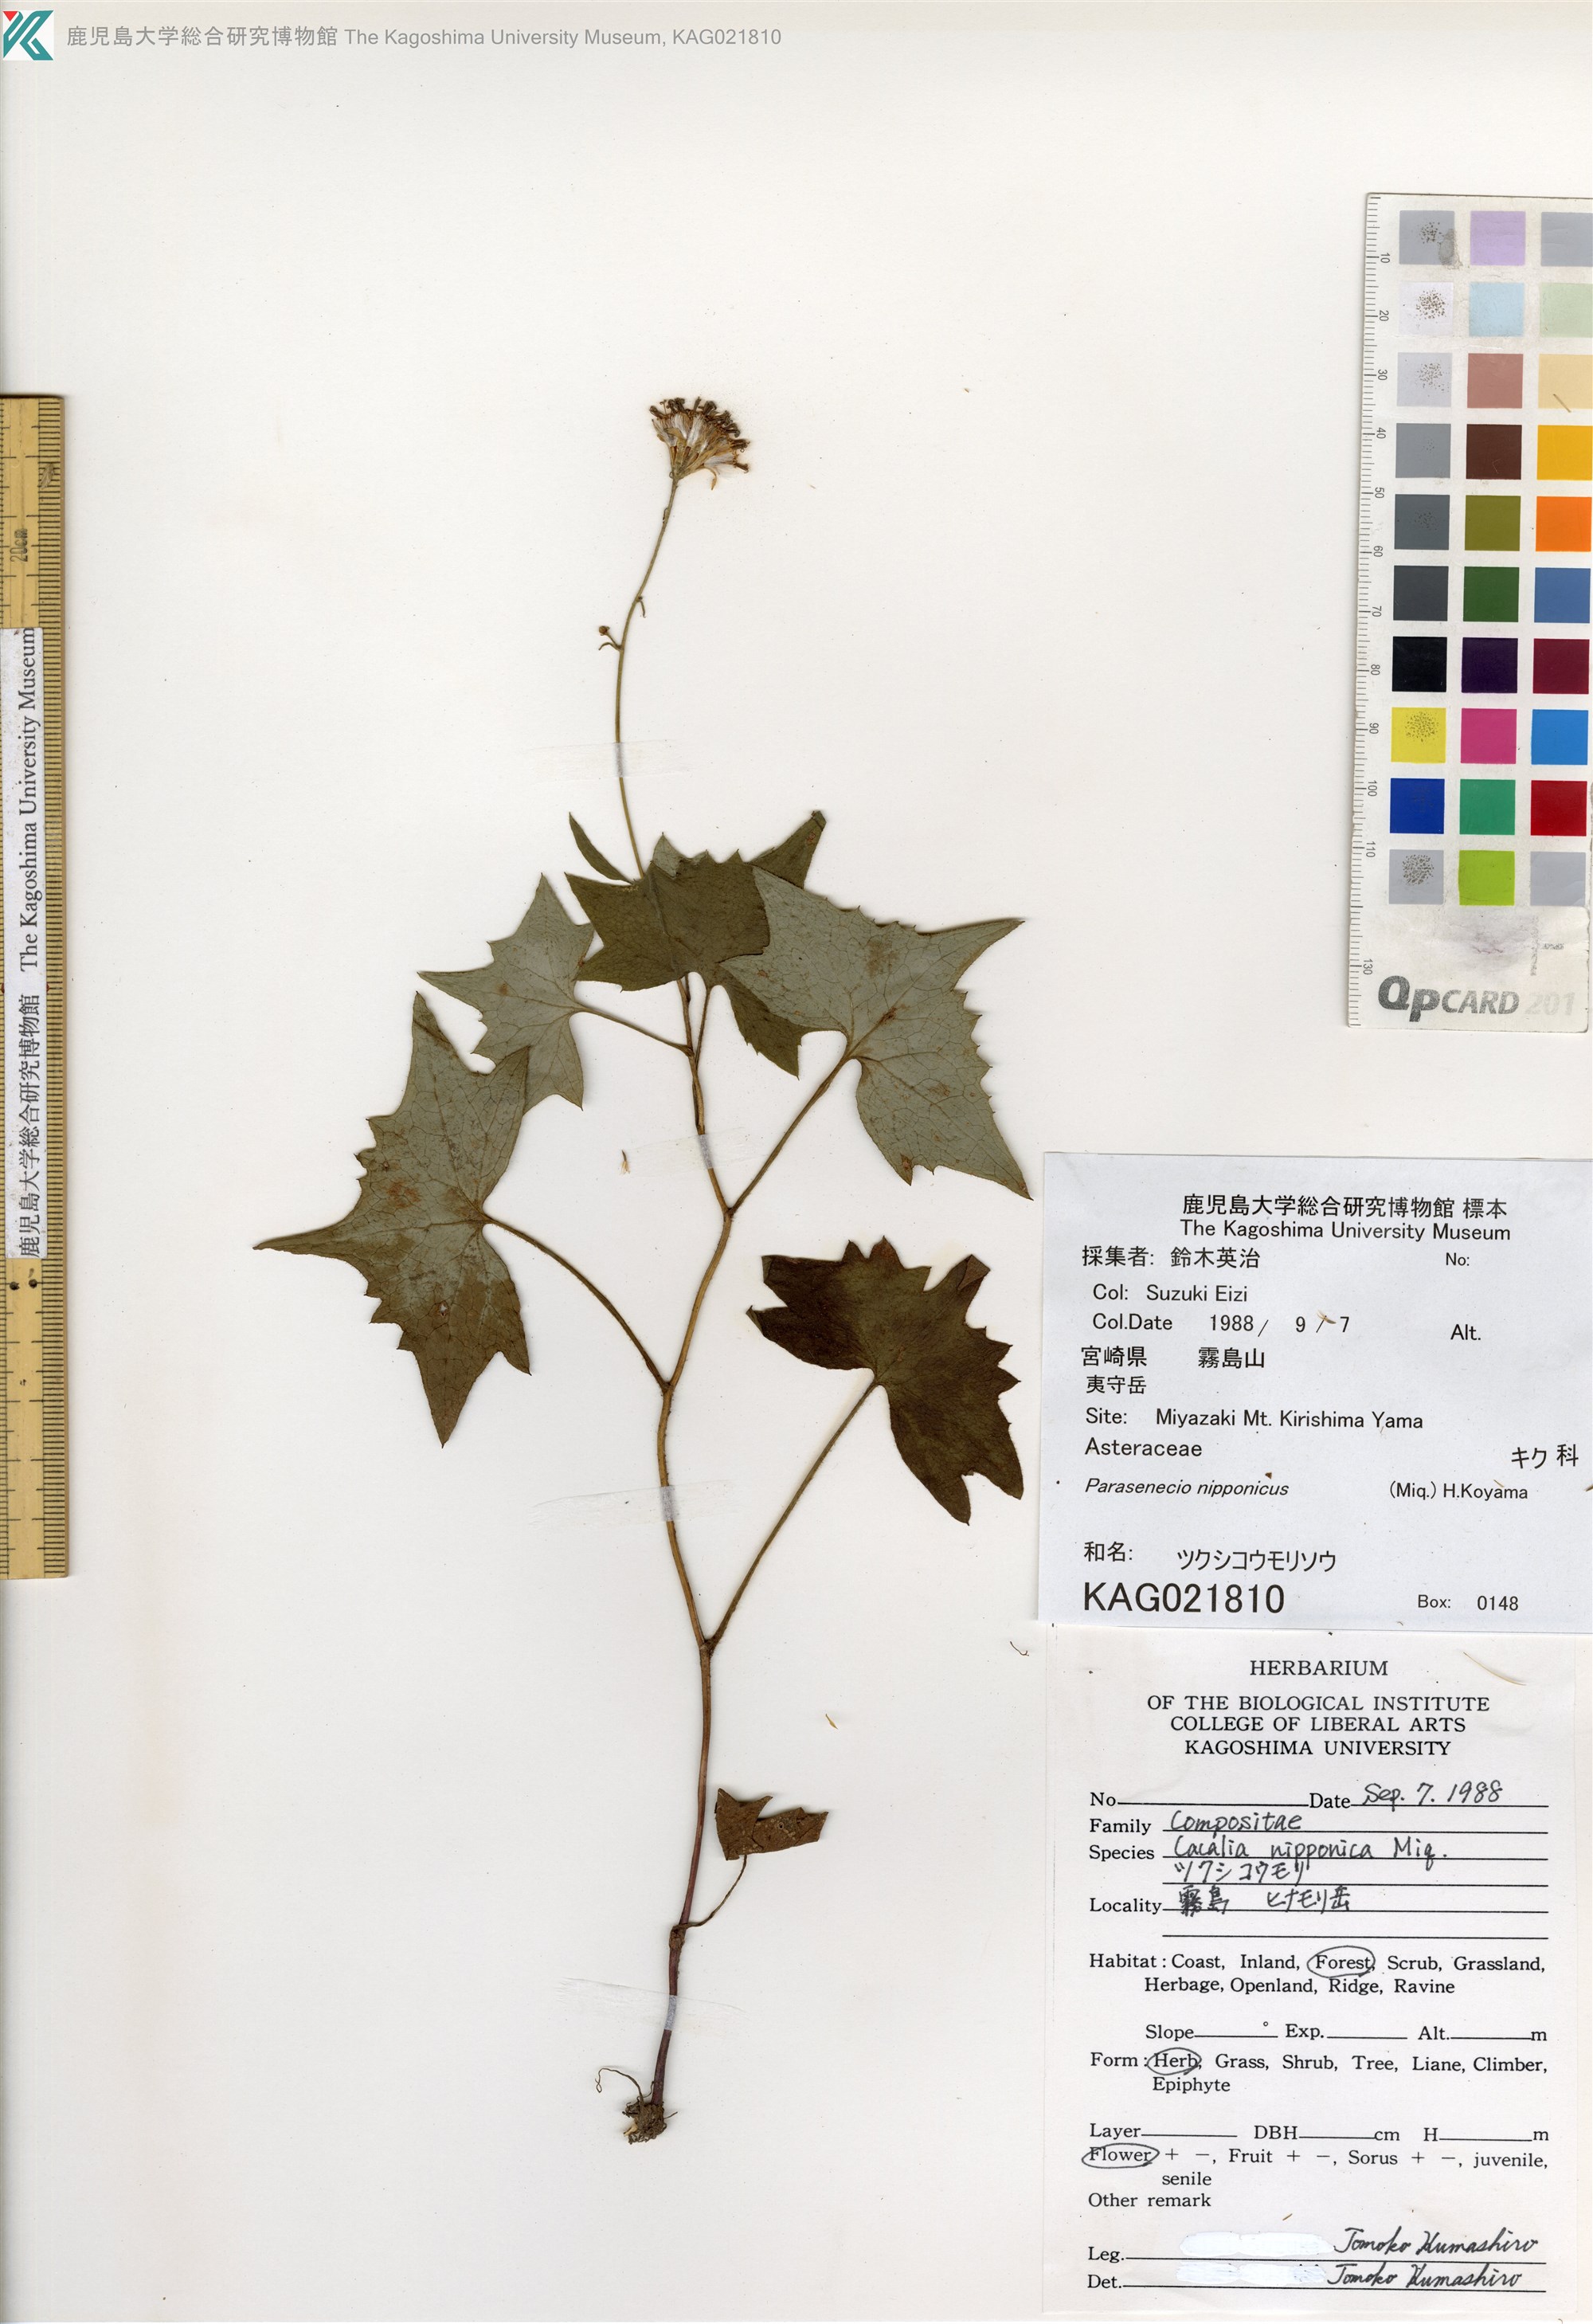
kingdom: Plantae
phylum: Tracheophyta
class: Magnoliopsida
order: Asterales
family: Asteraceae
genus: Parasenecio
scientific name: Parasenecio nipponicus
